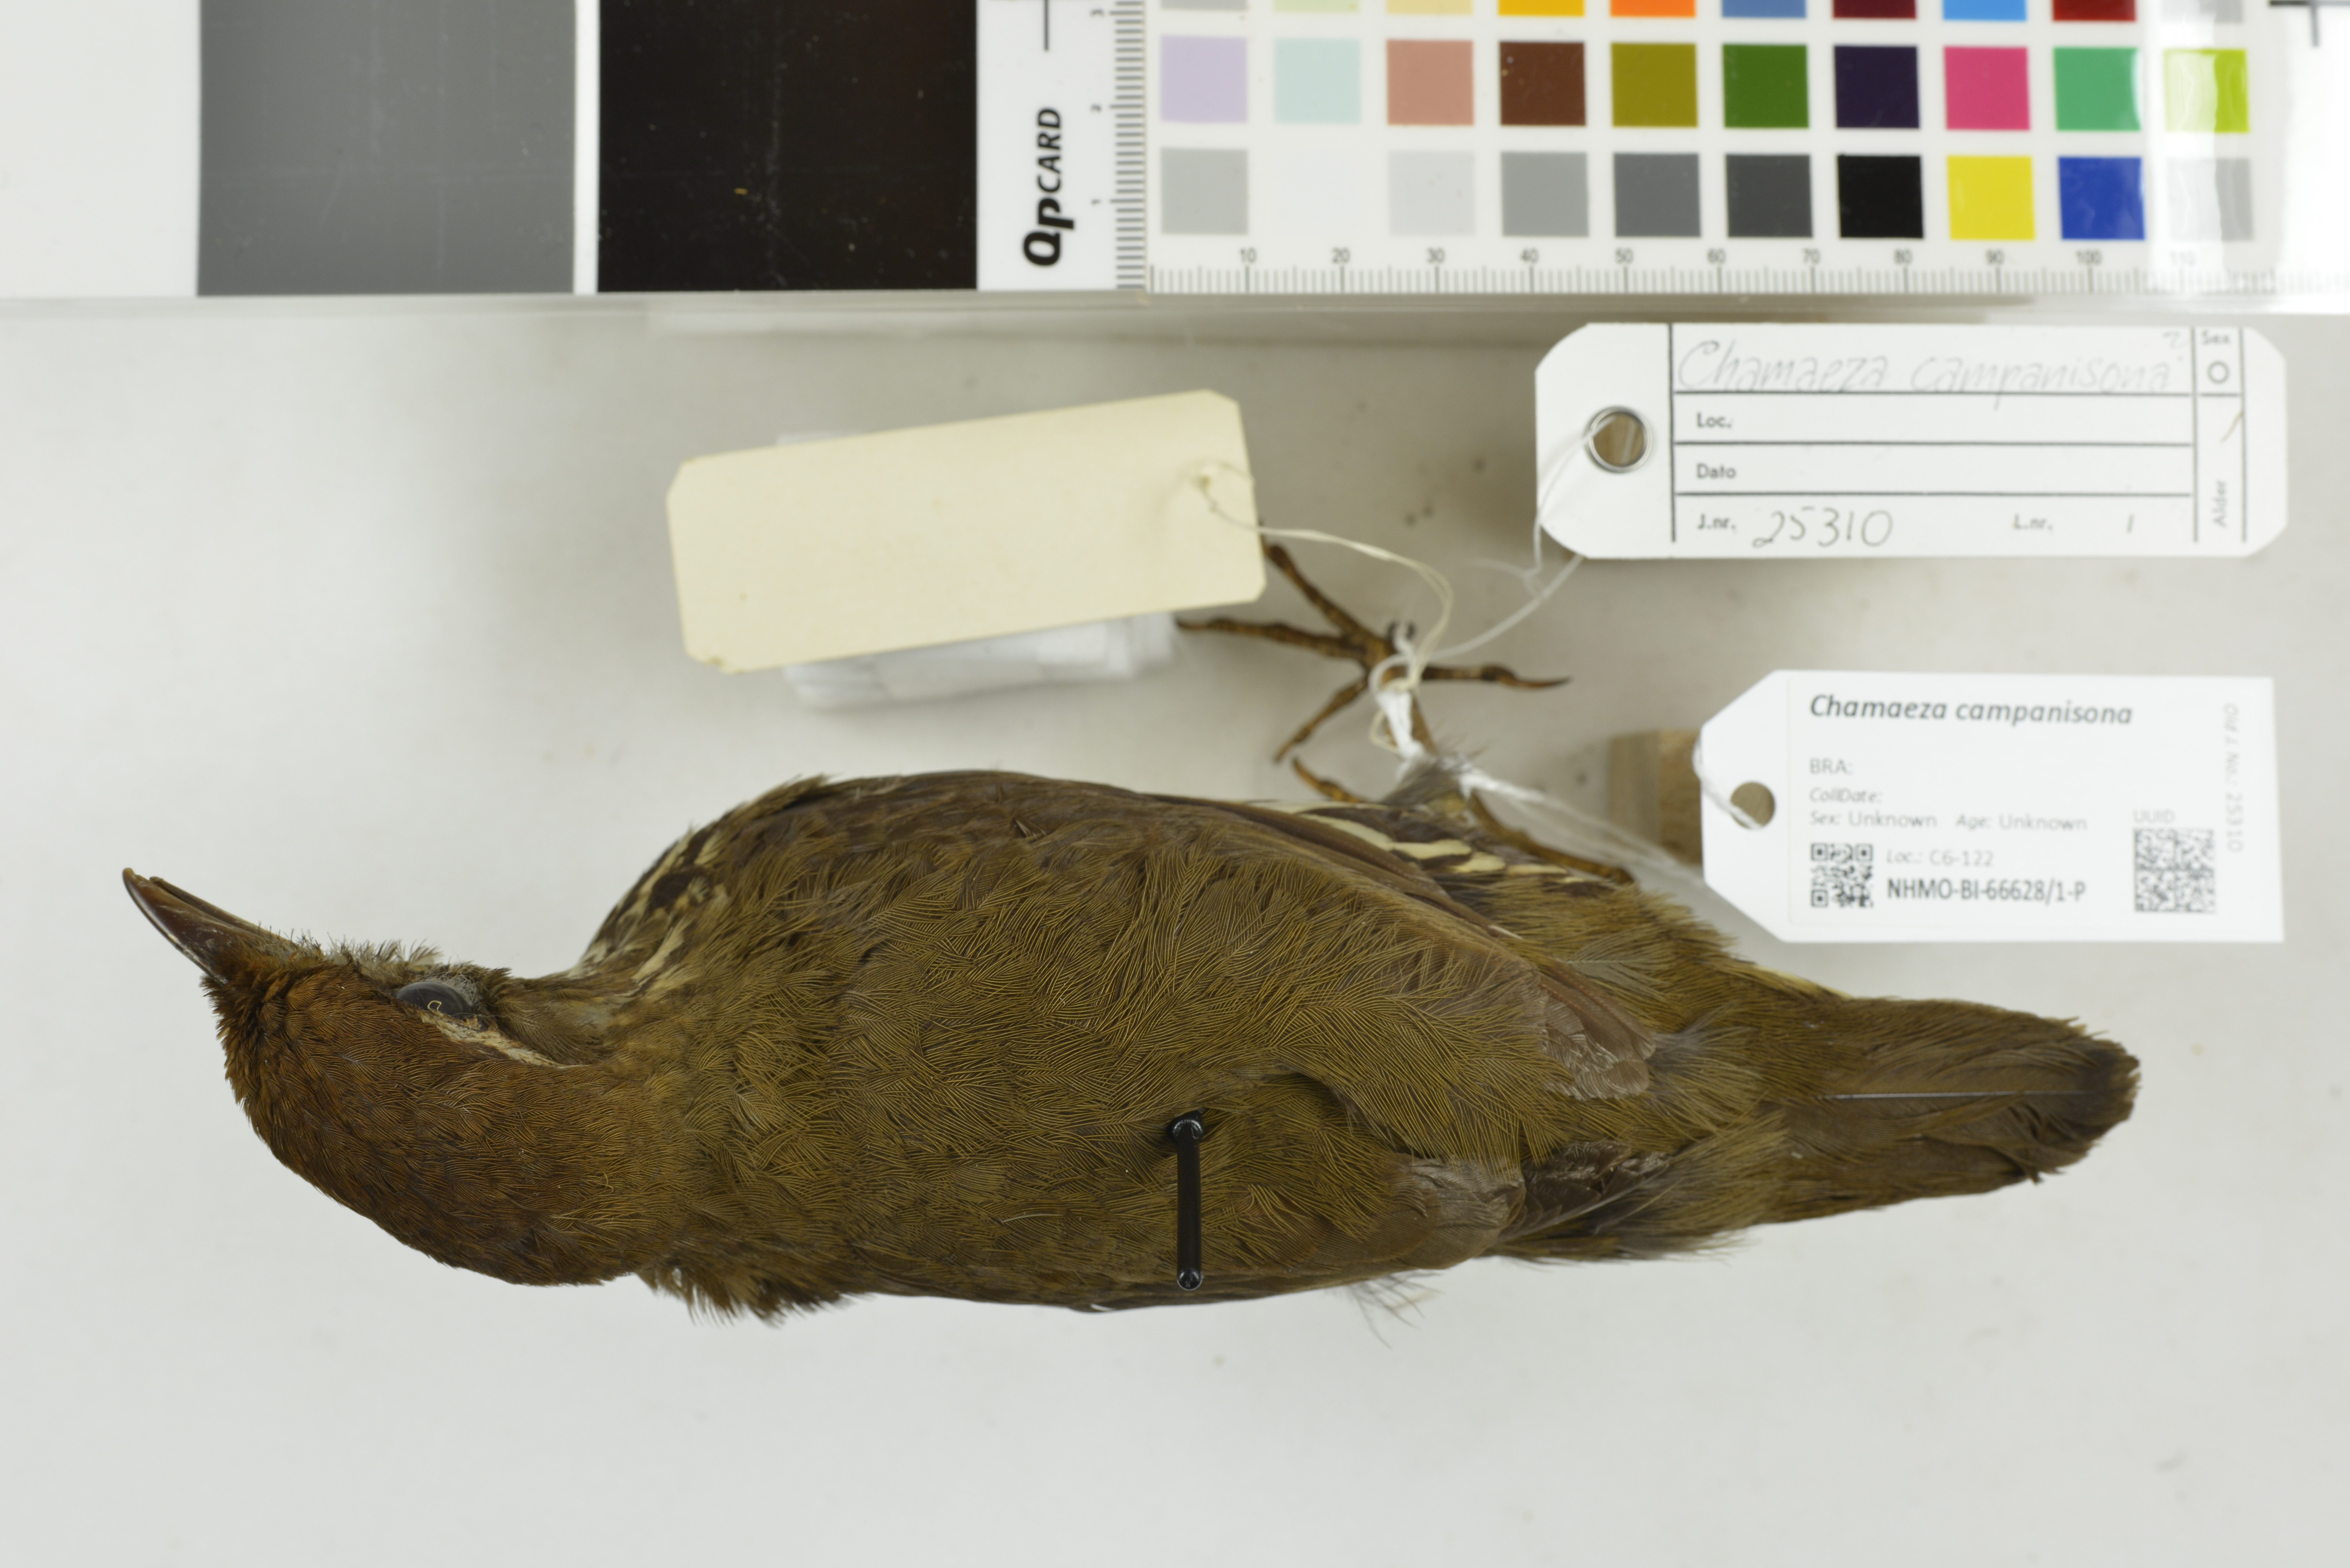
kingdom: Animalia
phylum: Chordata
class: Aves
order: Passeriformes
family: Formicariidae
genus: Chamaeza
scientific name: Chamaeza campanisona
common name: Short-tailed antthrush
